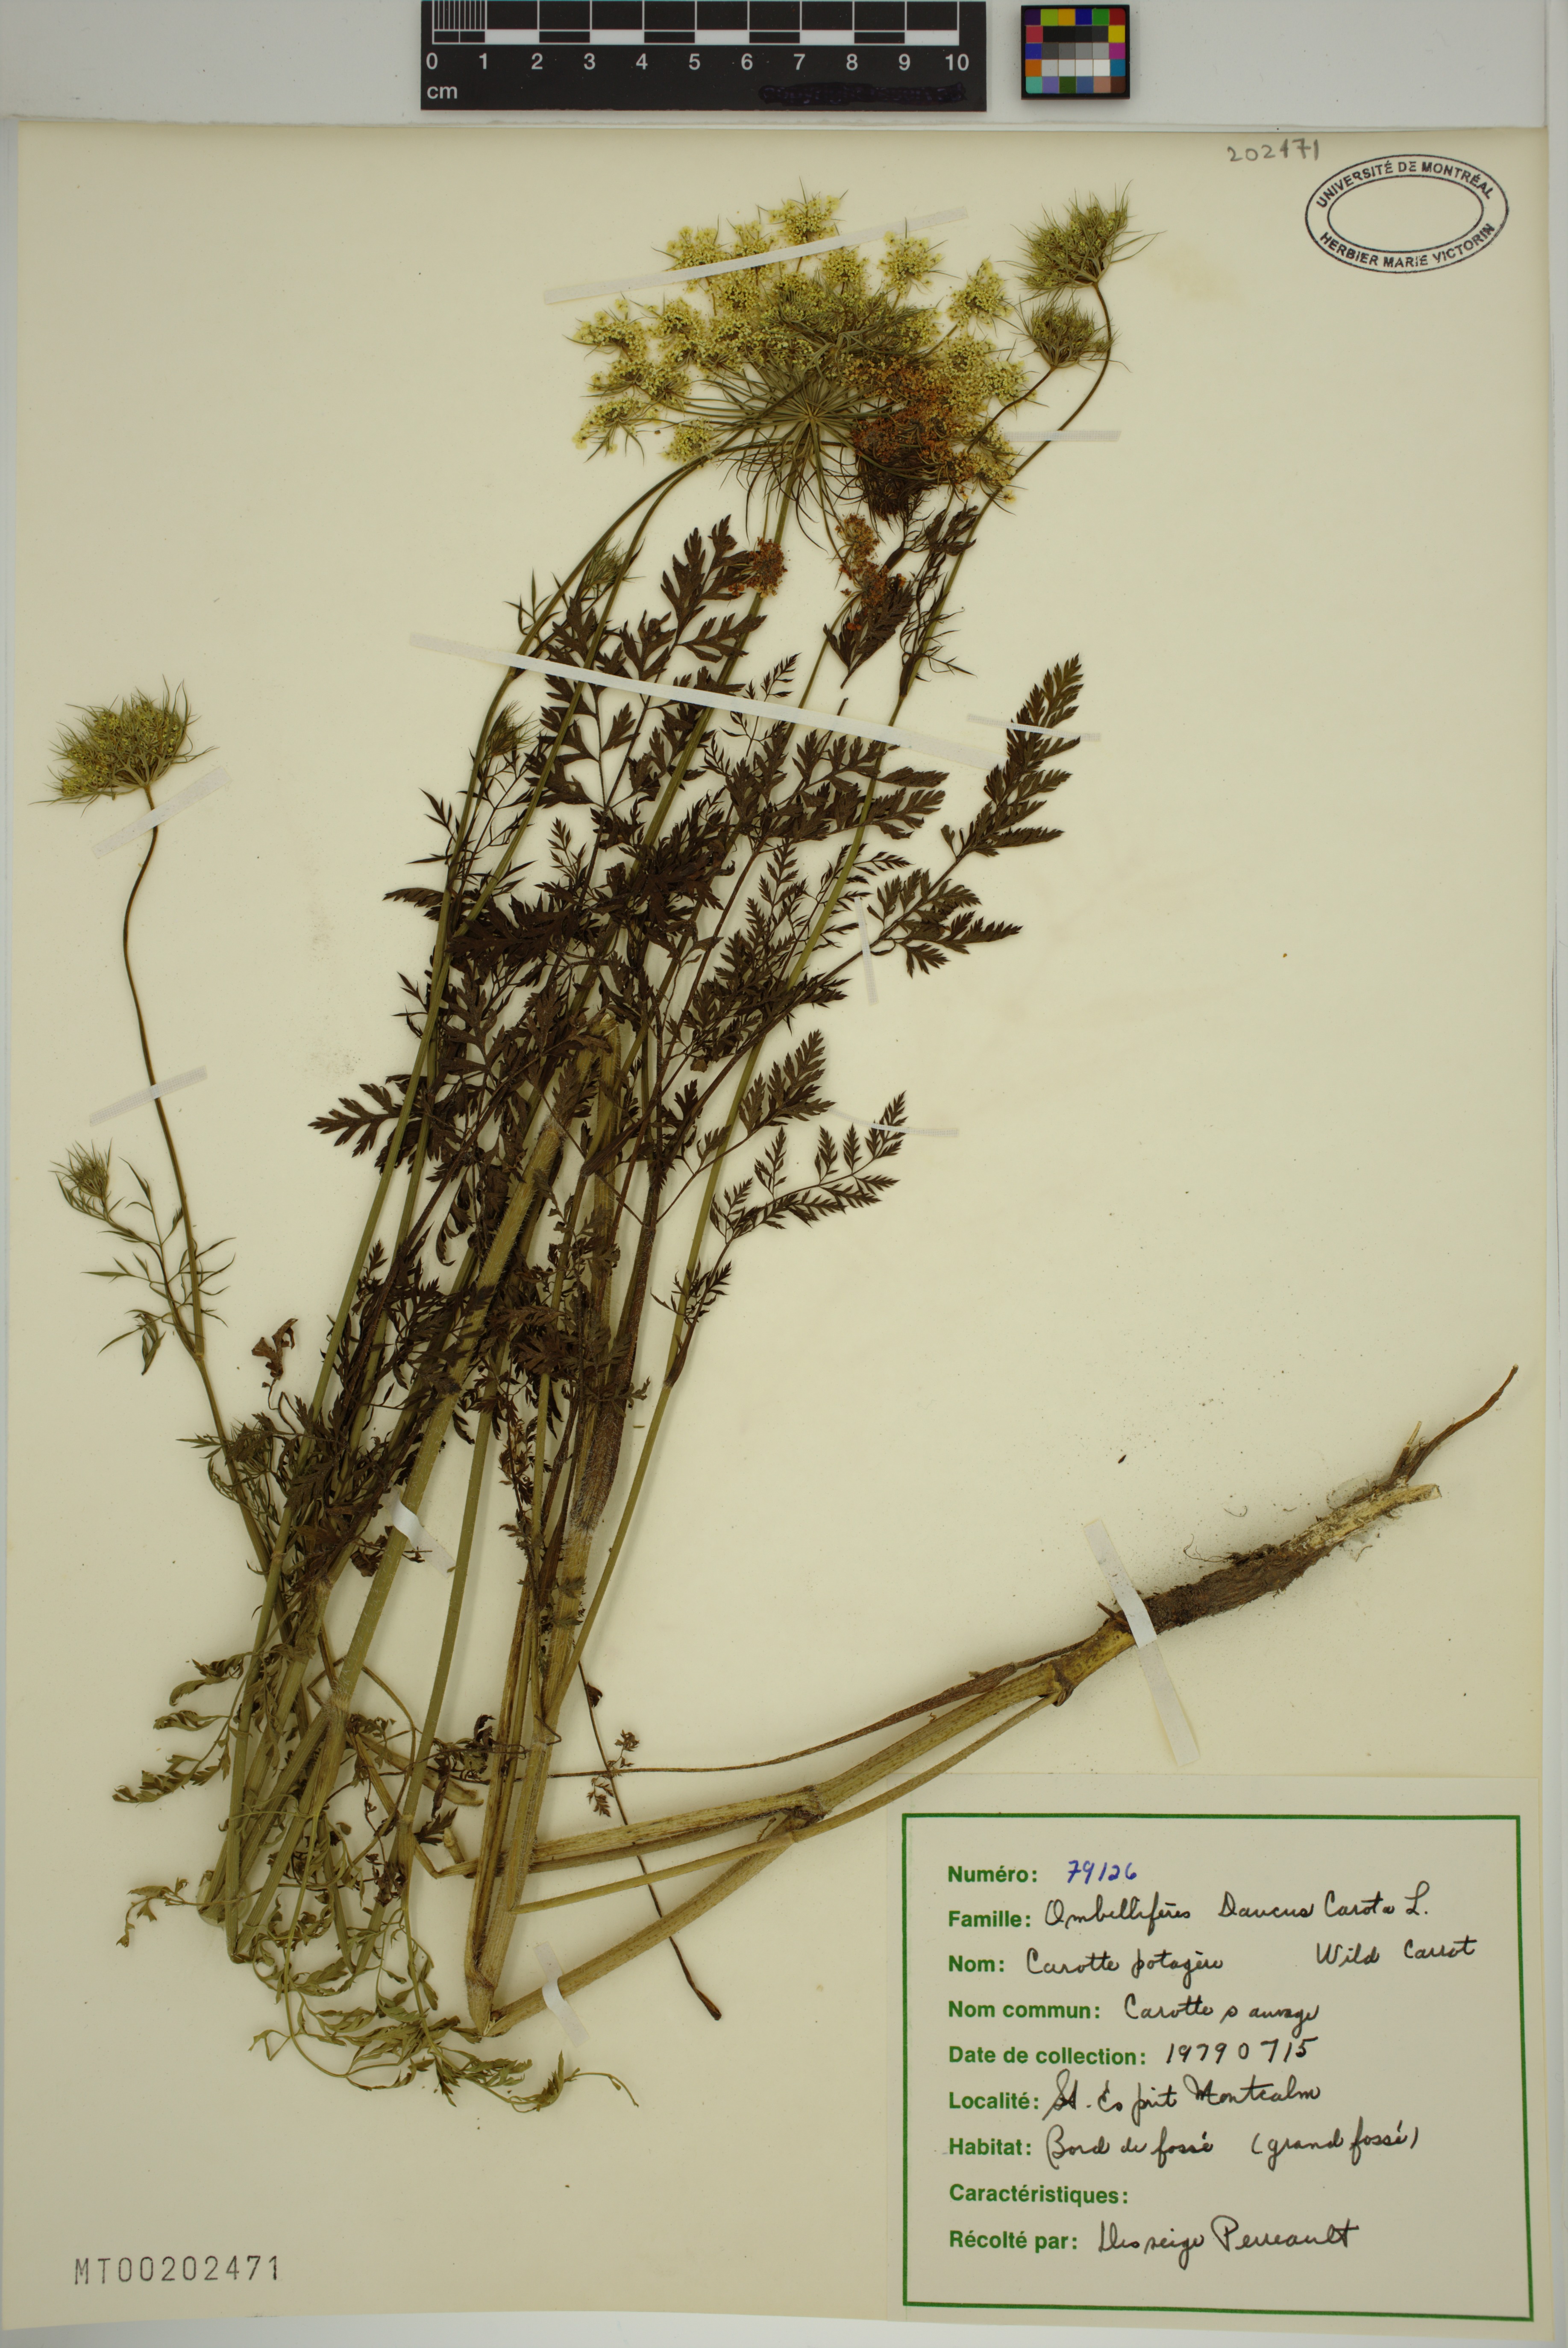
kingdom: Plantae
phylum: Tracheophyta
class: Magnoliopsida
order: Apiales
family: Apiaceae
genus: Daucus
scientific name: Daucus carota
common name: Wild carrot
